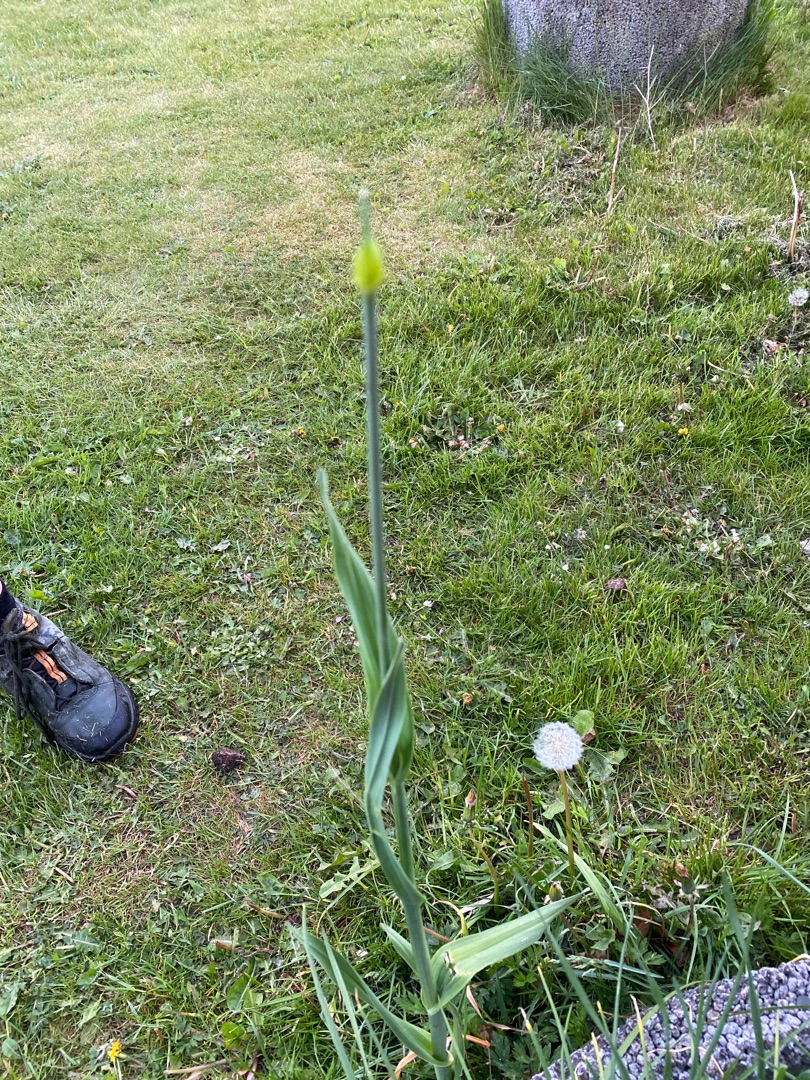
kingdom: Plantae
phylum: Tracheophyta
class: Liliopsida
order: Asparagales
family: Amaryllidaceae
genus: Allium
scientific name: Allium scorodoprasum
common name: Skov-løg
